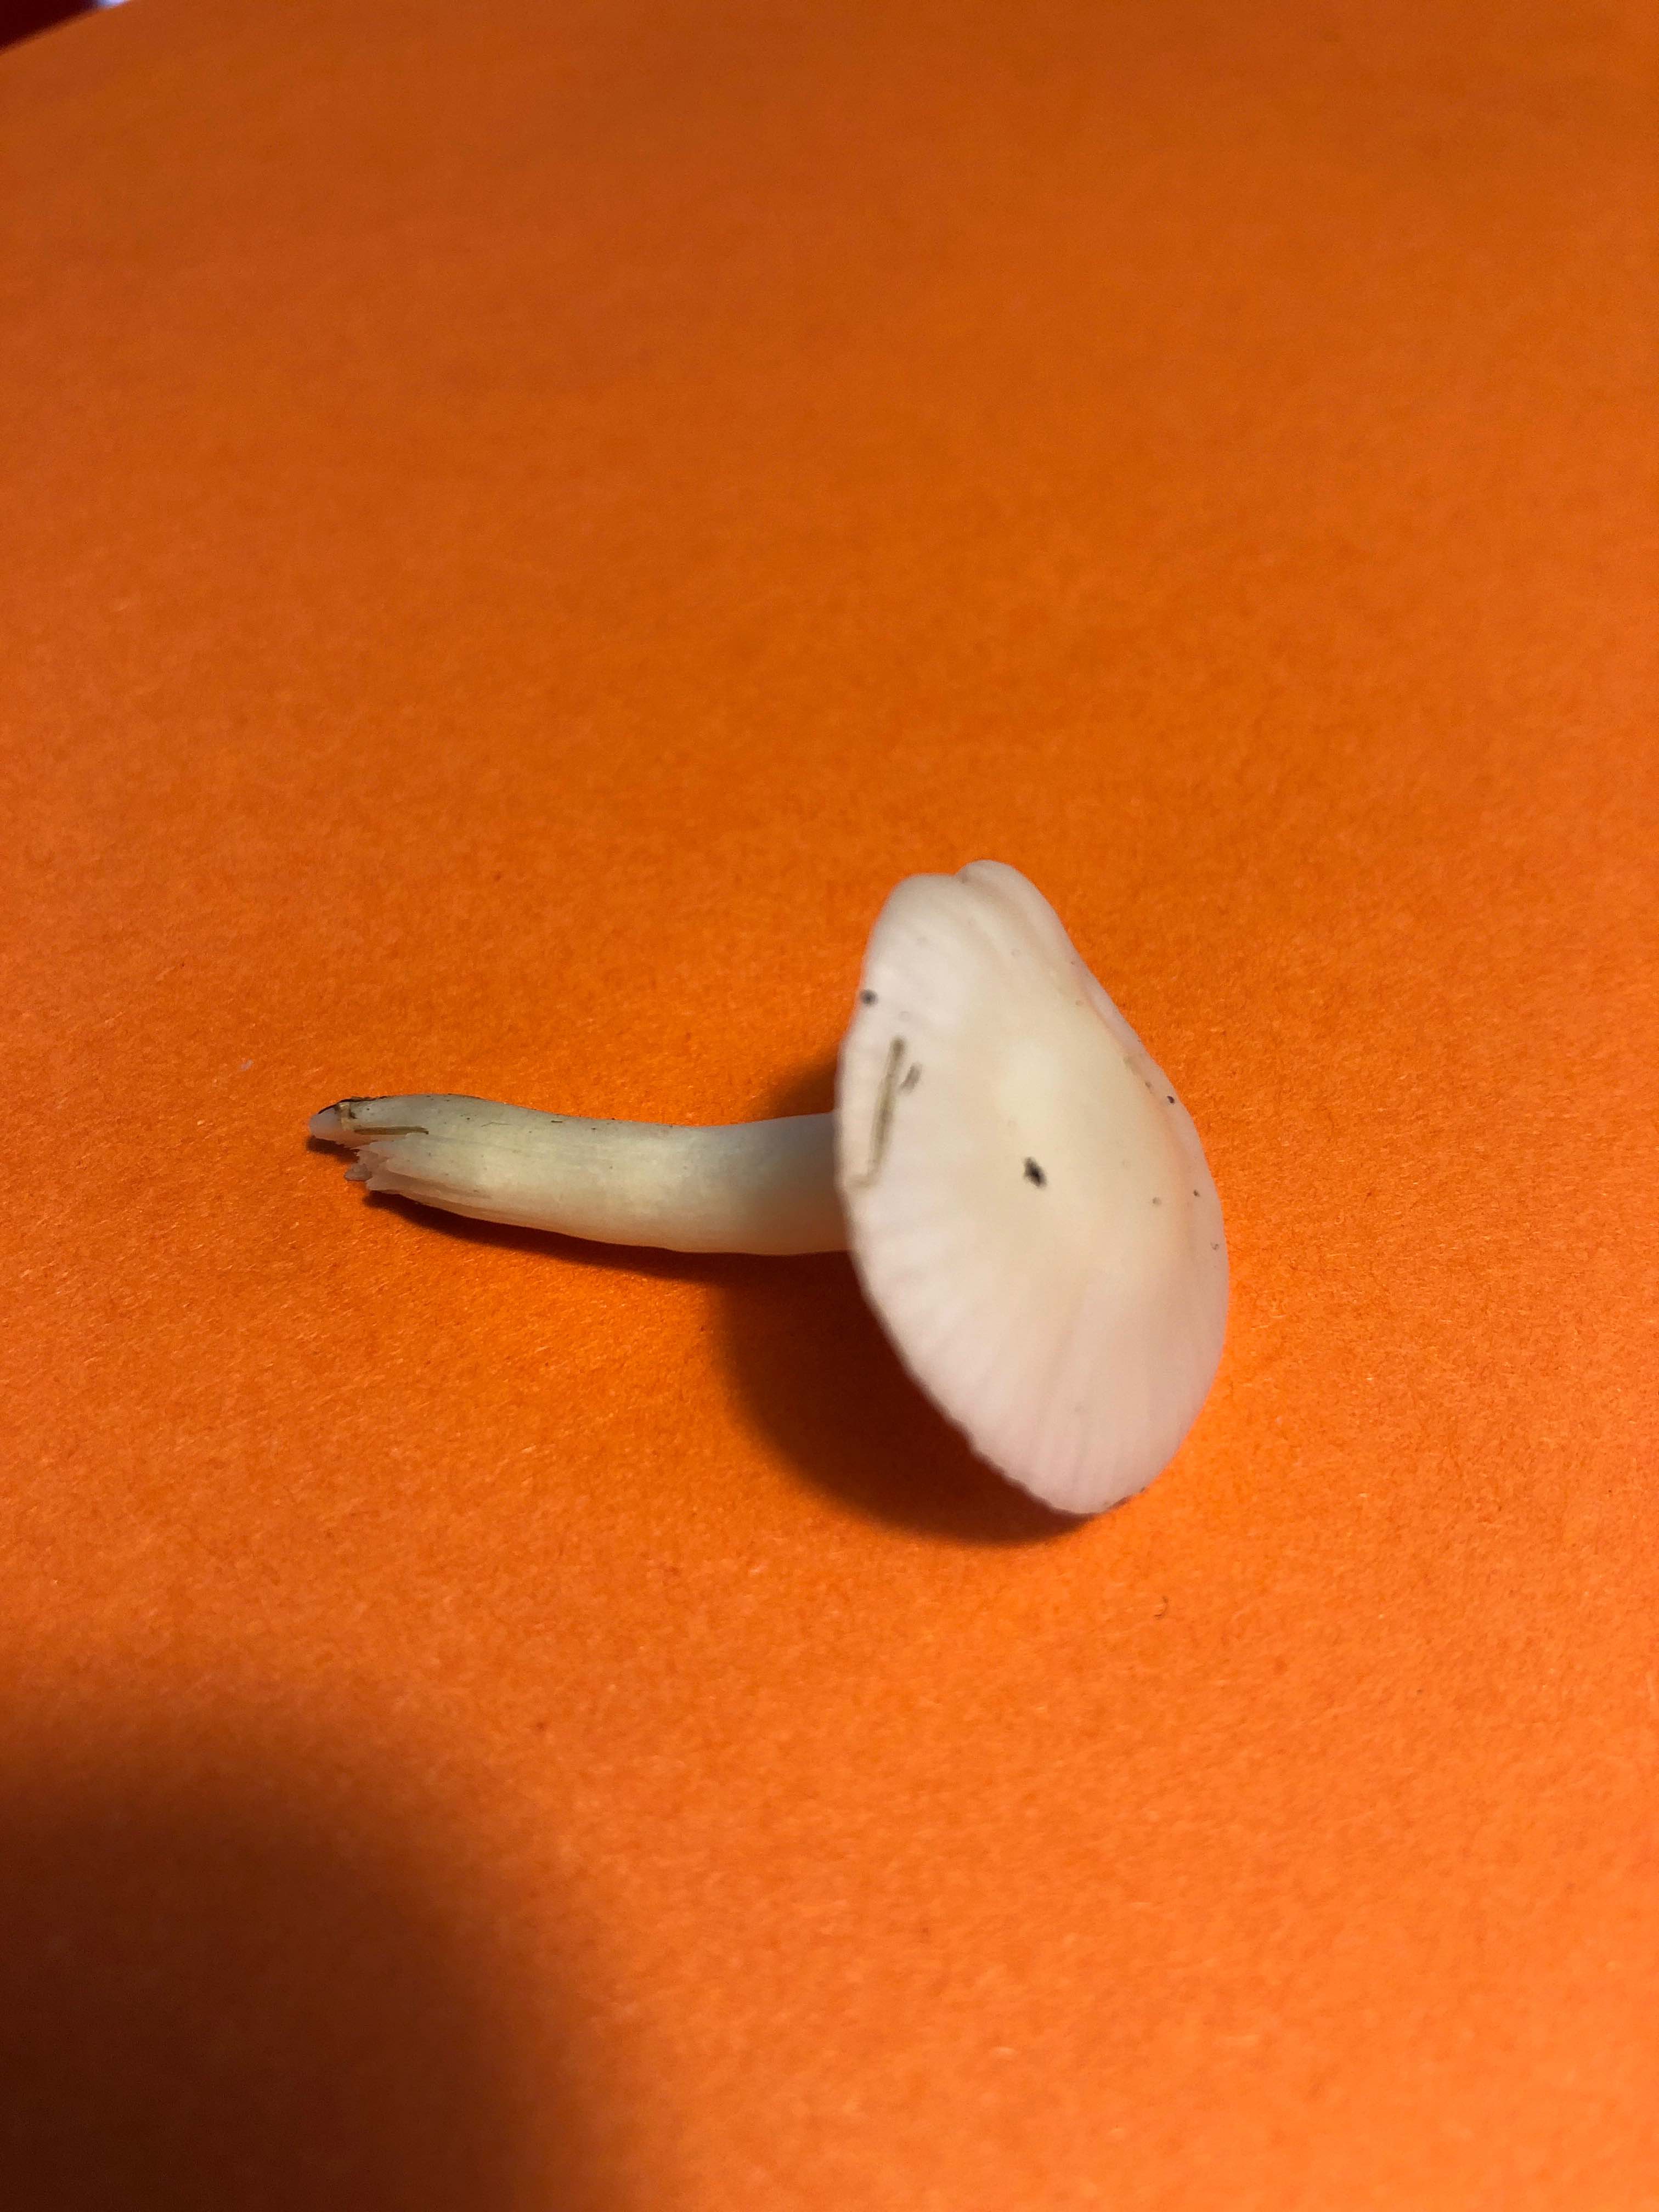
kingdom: Fungi
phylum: Basidiomycota
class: Agaricomycetes
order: Agaricales
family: Hygrophoraceae
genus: Cuphophyllus
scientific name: Cuphophyllus
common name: vokshat
